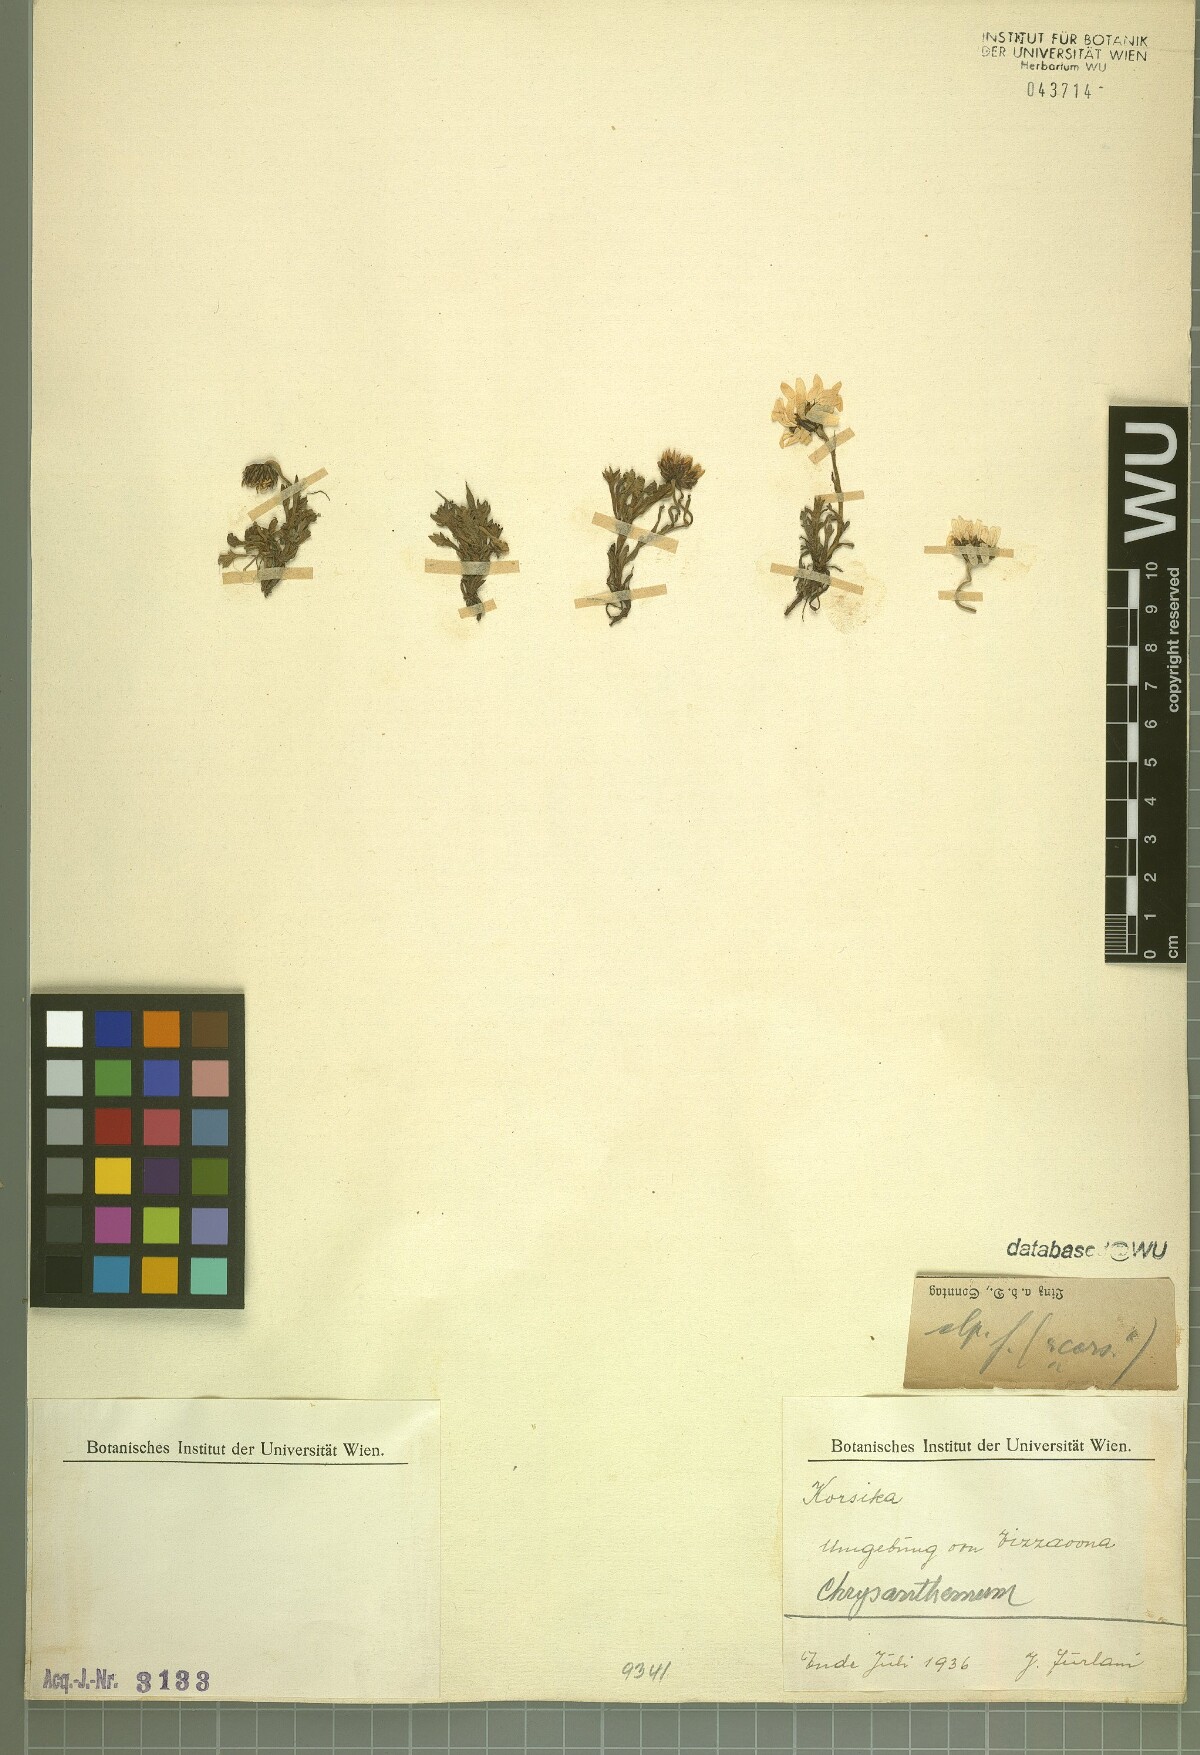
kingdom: Plantae
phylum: Tracheophyta
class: Magnoliopsida
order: Asterales
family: Asteraceae
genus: Chrysanthemum
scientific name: Chrysanthemum
